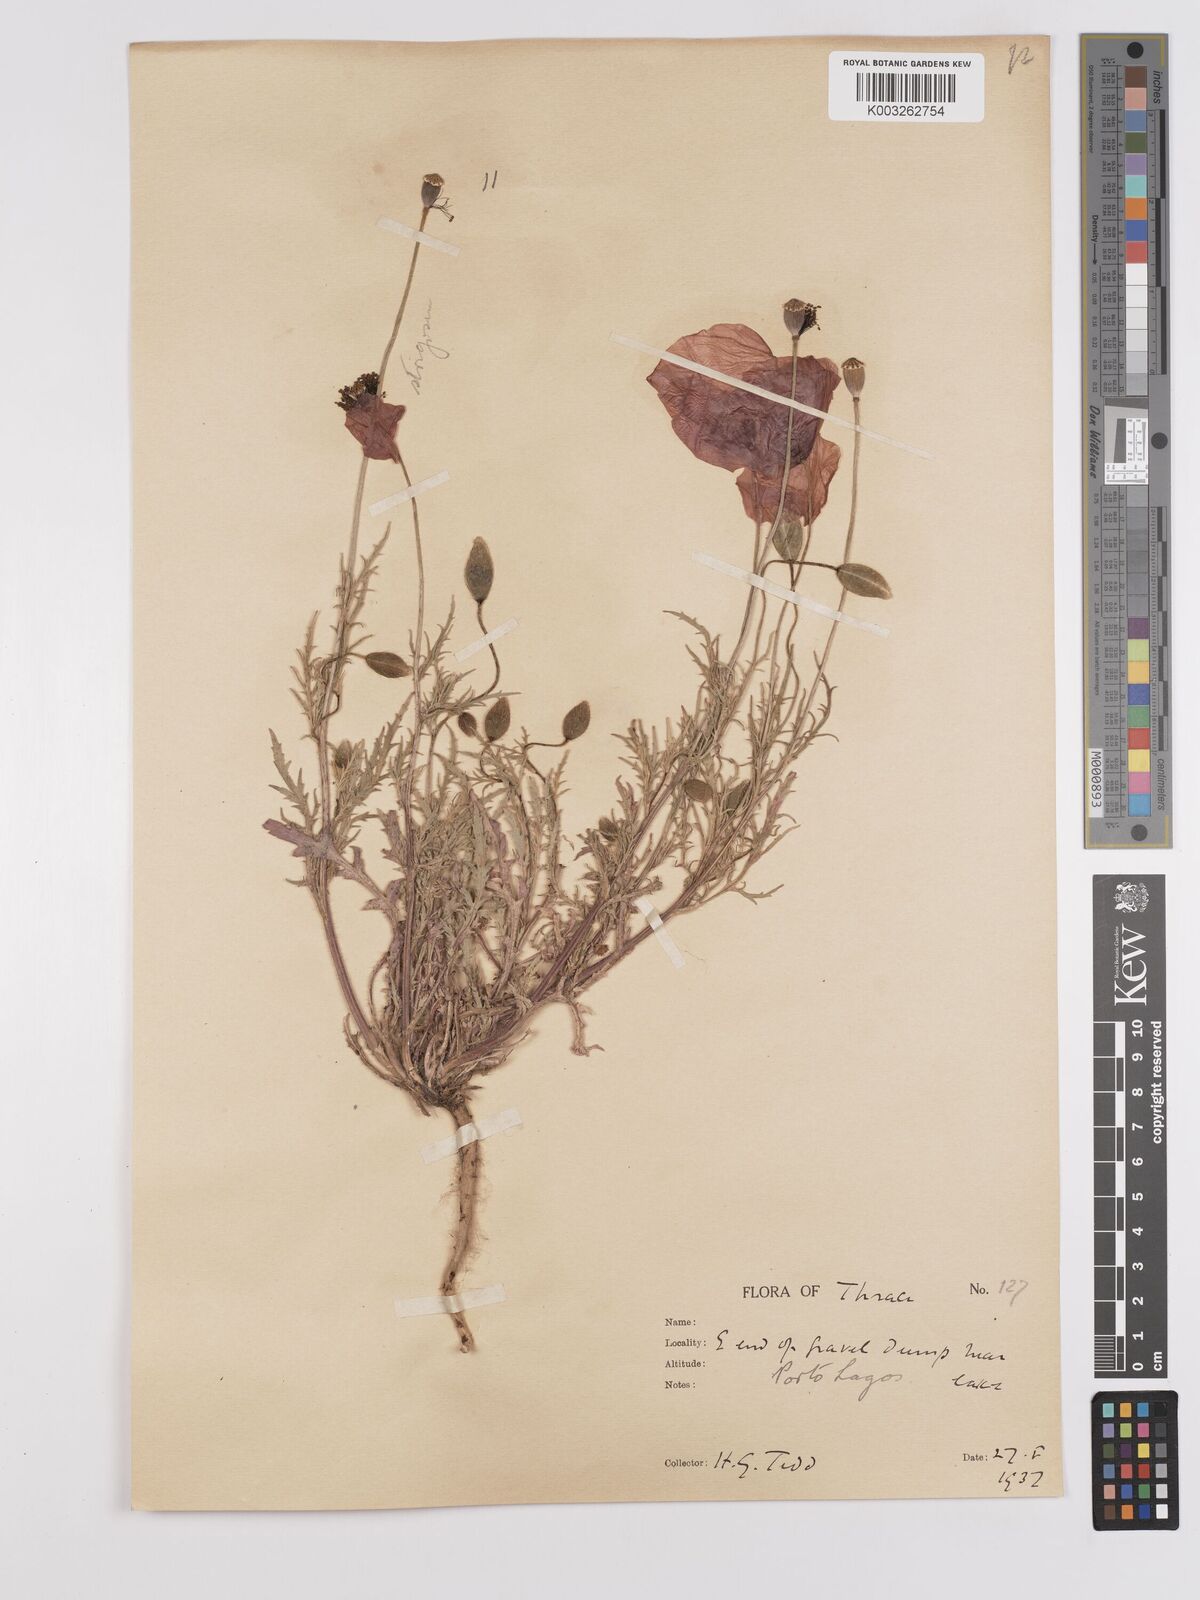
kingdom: Plantae
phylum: Tracheophyta
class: Magnoliopsida
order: Ranunculales
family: Papaveraceae
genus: Papaver
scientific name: Papaver
